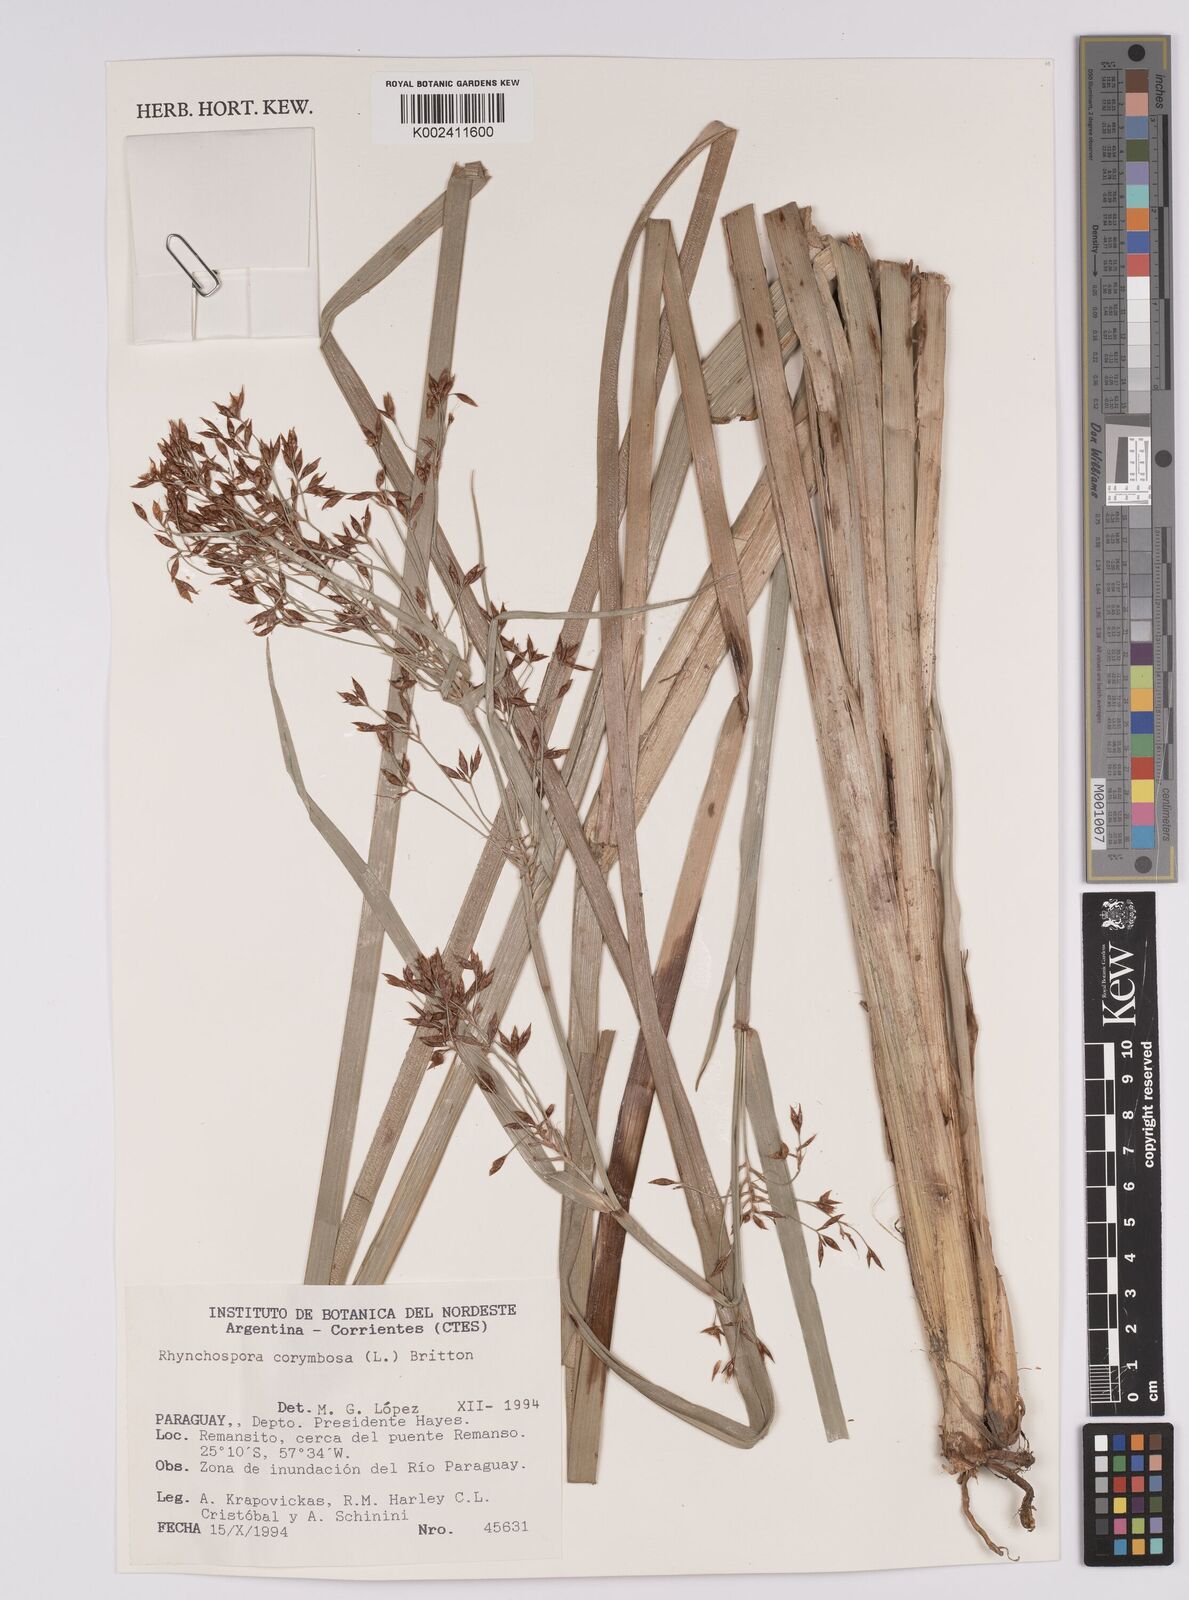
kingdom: Plantae
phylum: Tracheophyta
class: Liliopsida
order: Poales
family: Cyperaceae
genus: Rhynchospora
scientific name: Rhynchospora corymbosa
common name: Golden beak sedge
